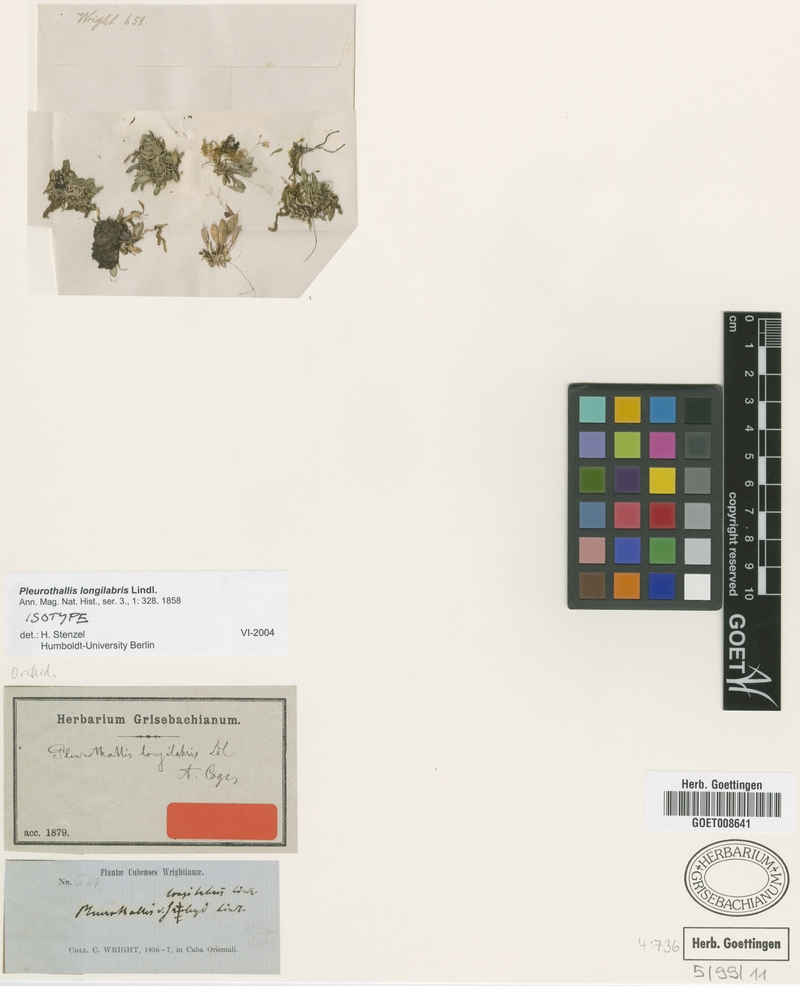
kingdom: Plantae
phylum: Tracheophyta
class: Liliopsida
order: Asparagales
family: Orchidaceae
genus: Muscarella
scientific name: Muscarella longilabris
